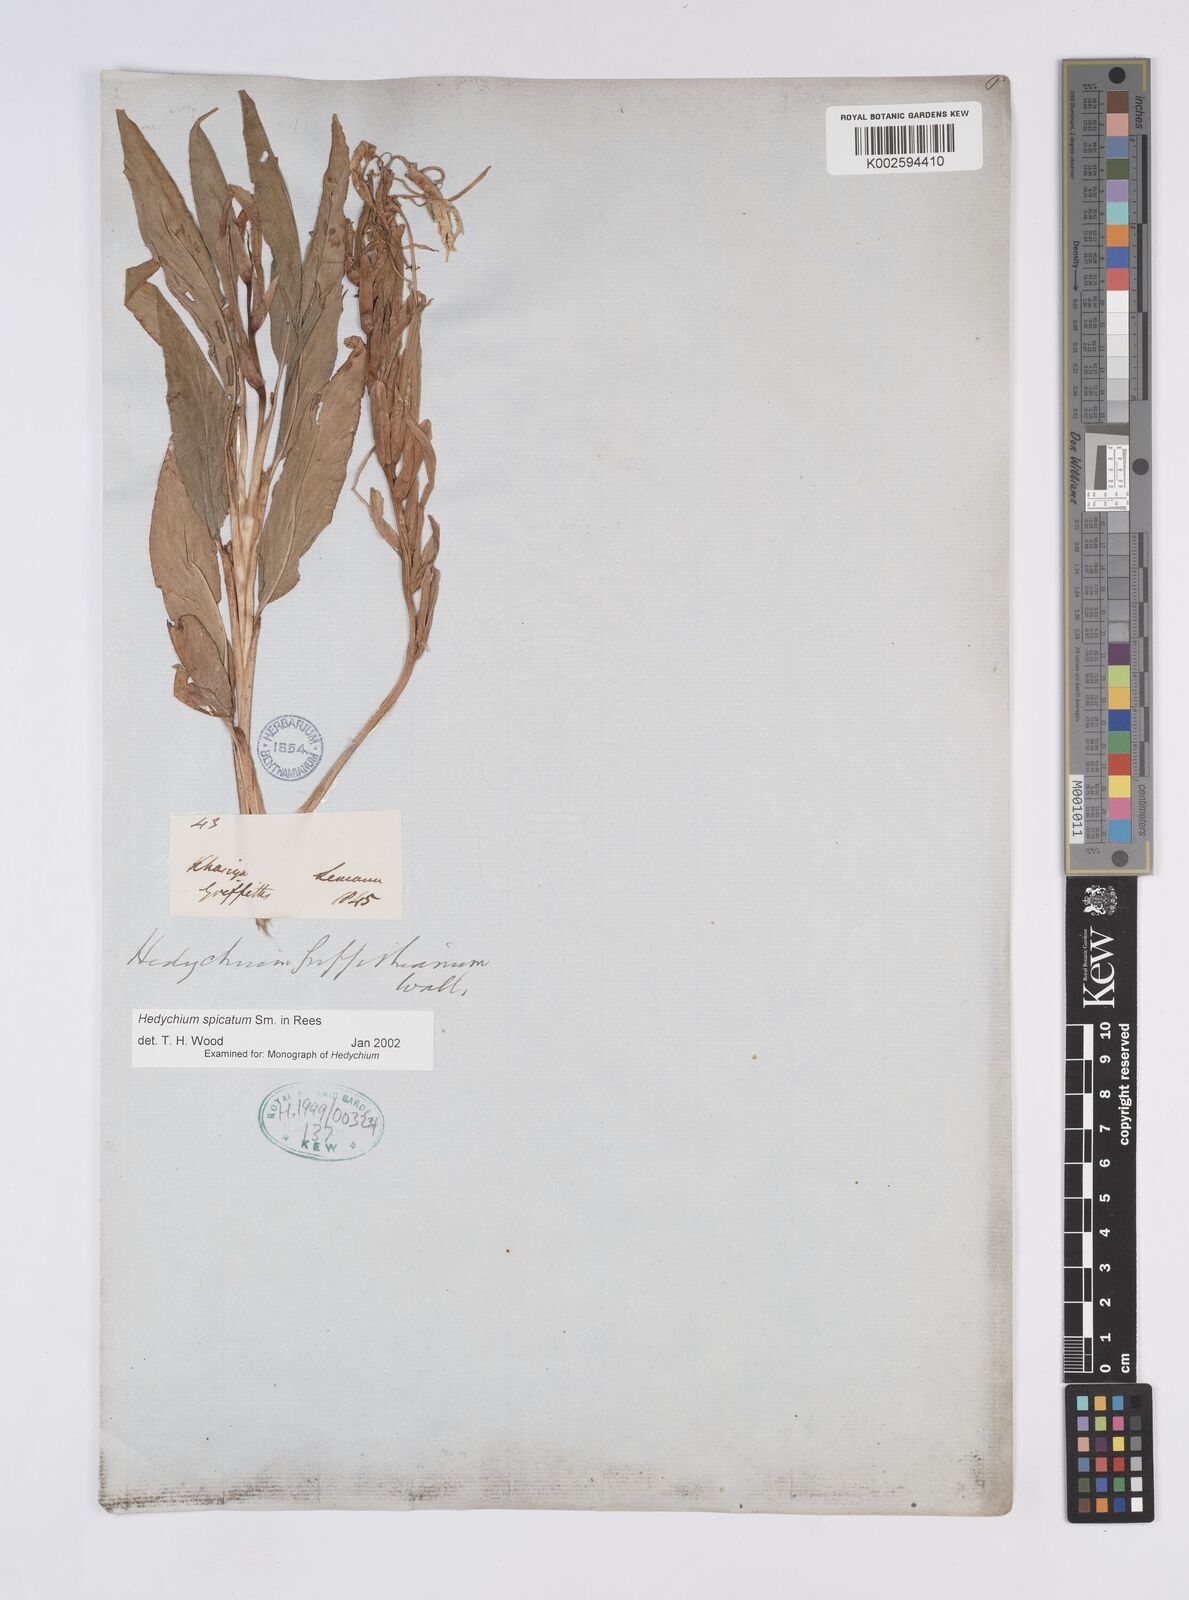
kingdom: Plantae
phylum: Tracheophyta
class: Liliopsida
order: Zingiberales
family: Zingiberaceae
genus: Hedychium
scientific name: Hedychium spicatum
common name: Spiked ginger-lily
